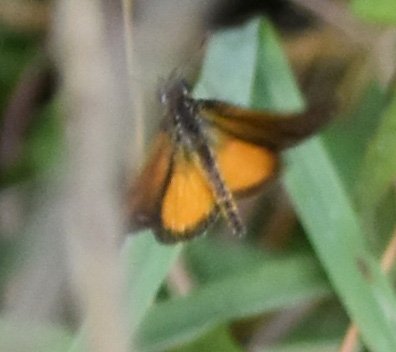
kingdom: Animalia
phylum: Arthropoda
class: Insecta
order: Lepidoptera
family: Hesperiidae
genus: Ancyloxypha
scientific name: Ancyloxypha numitor
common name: Least Skipper
